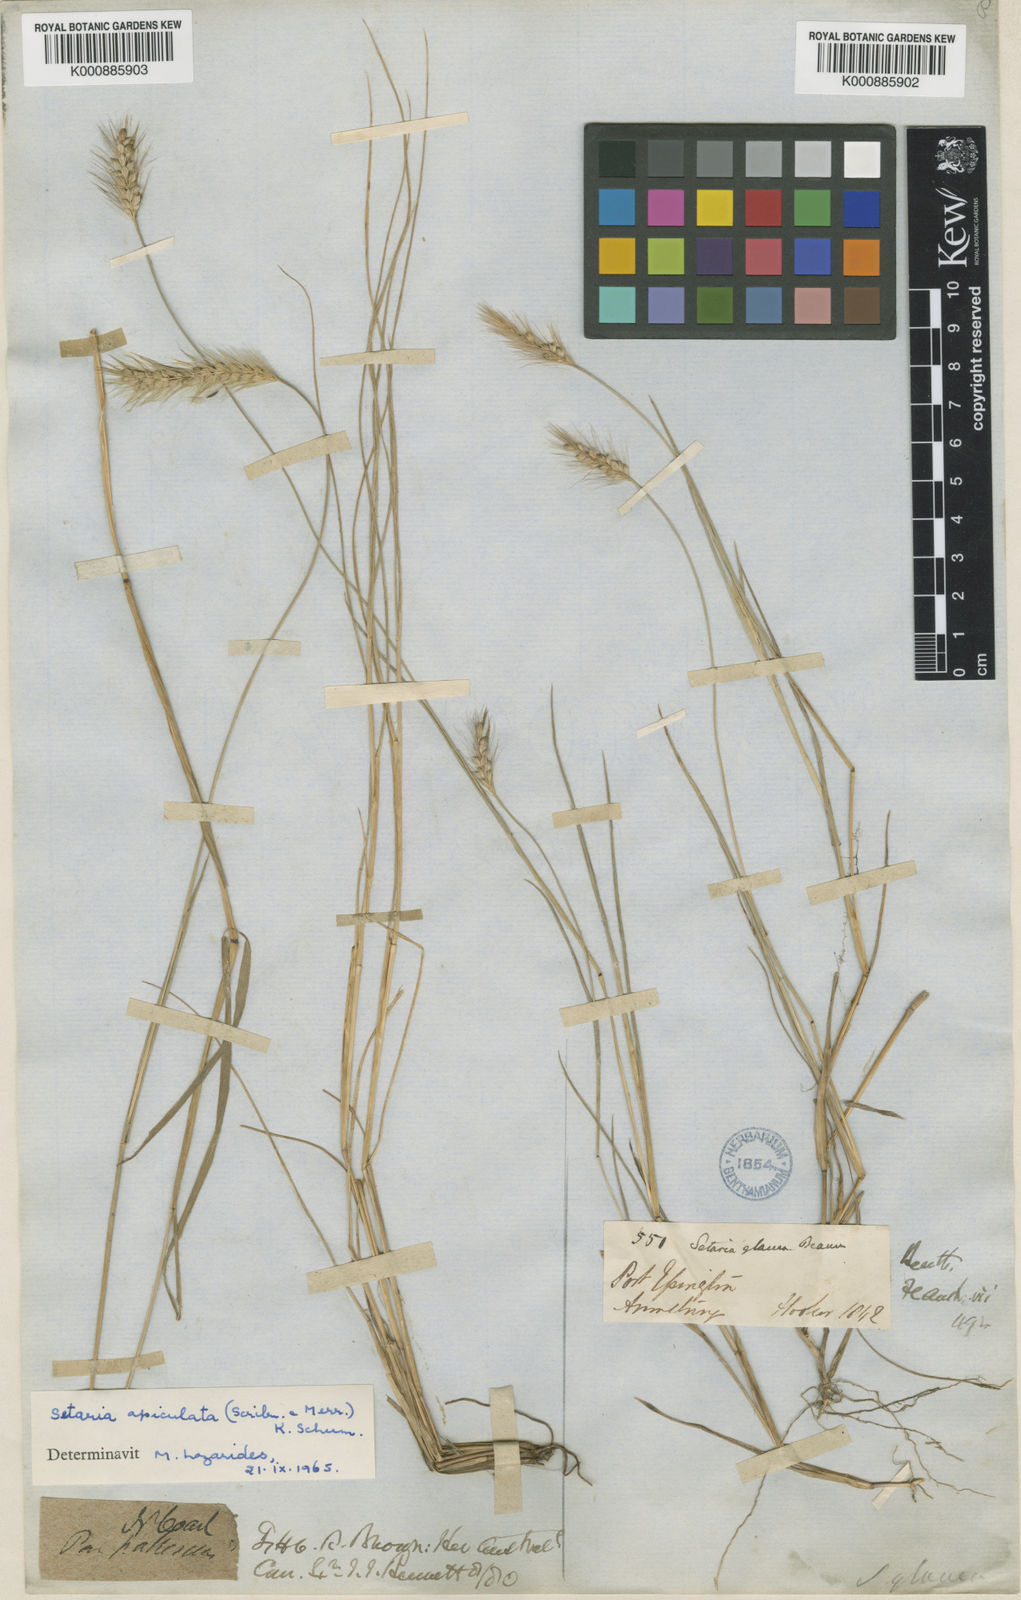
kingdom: Plantae
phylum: Tracheophyta
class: Liliopsida
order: Poales
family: Poaceae
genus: Setaria
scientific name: Setaria apiculata
